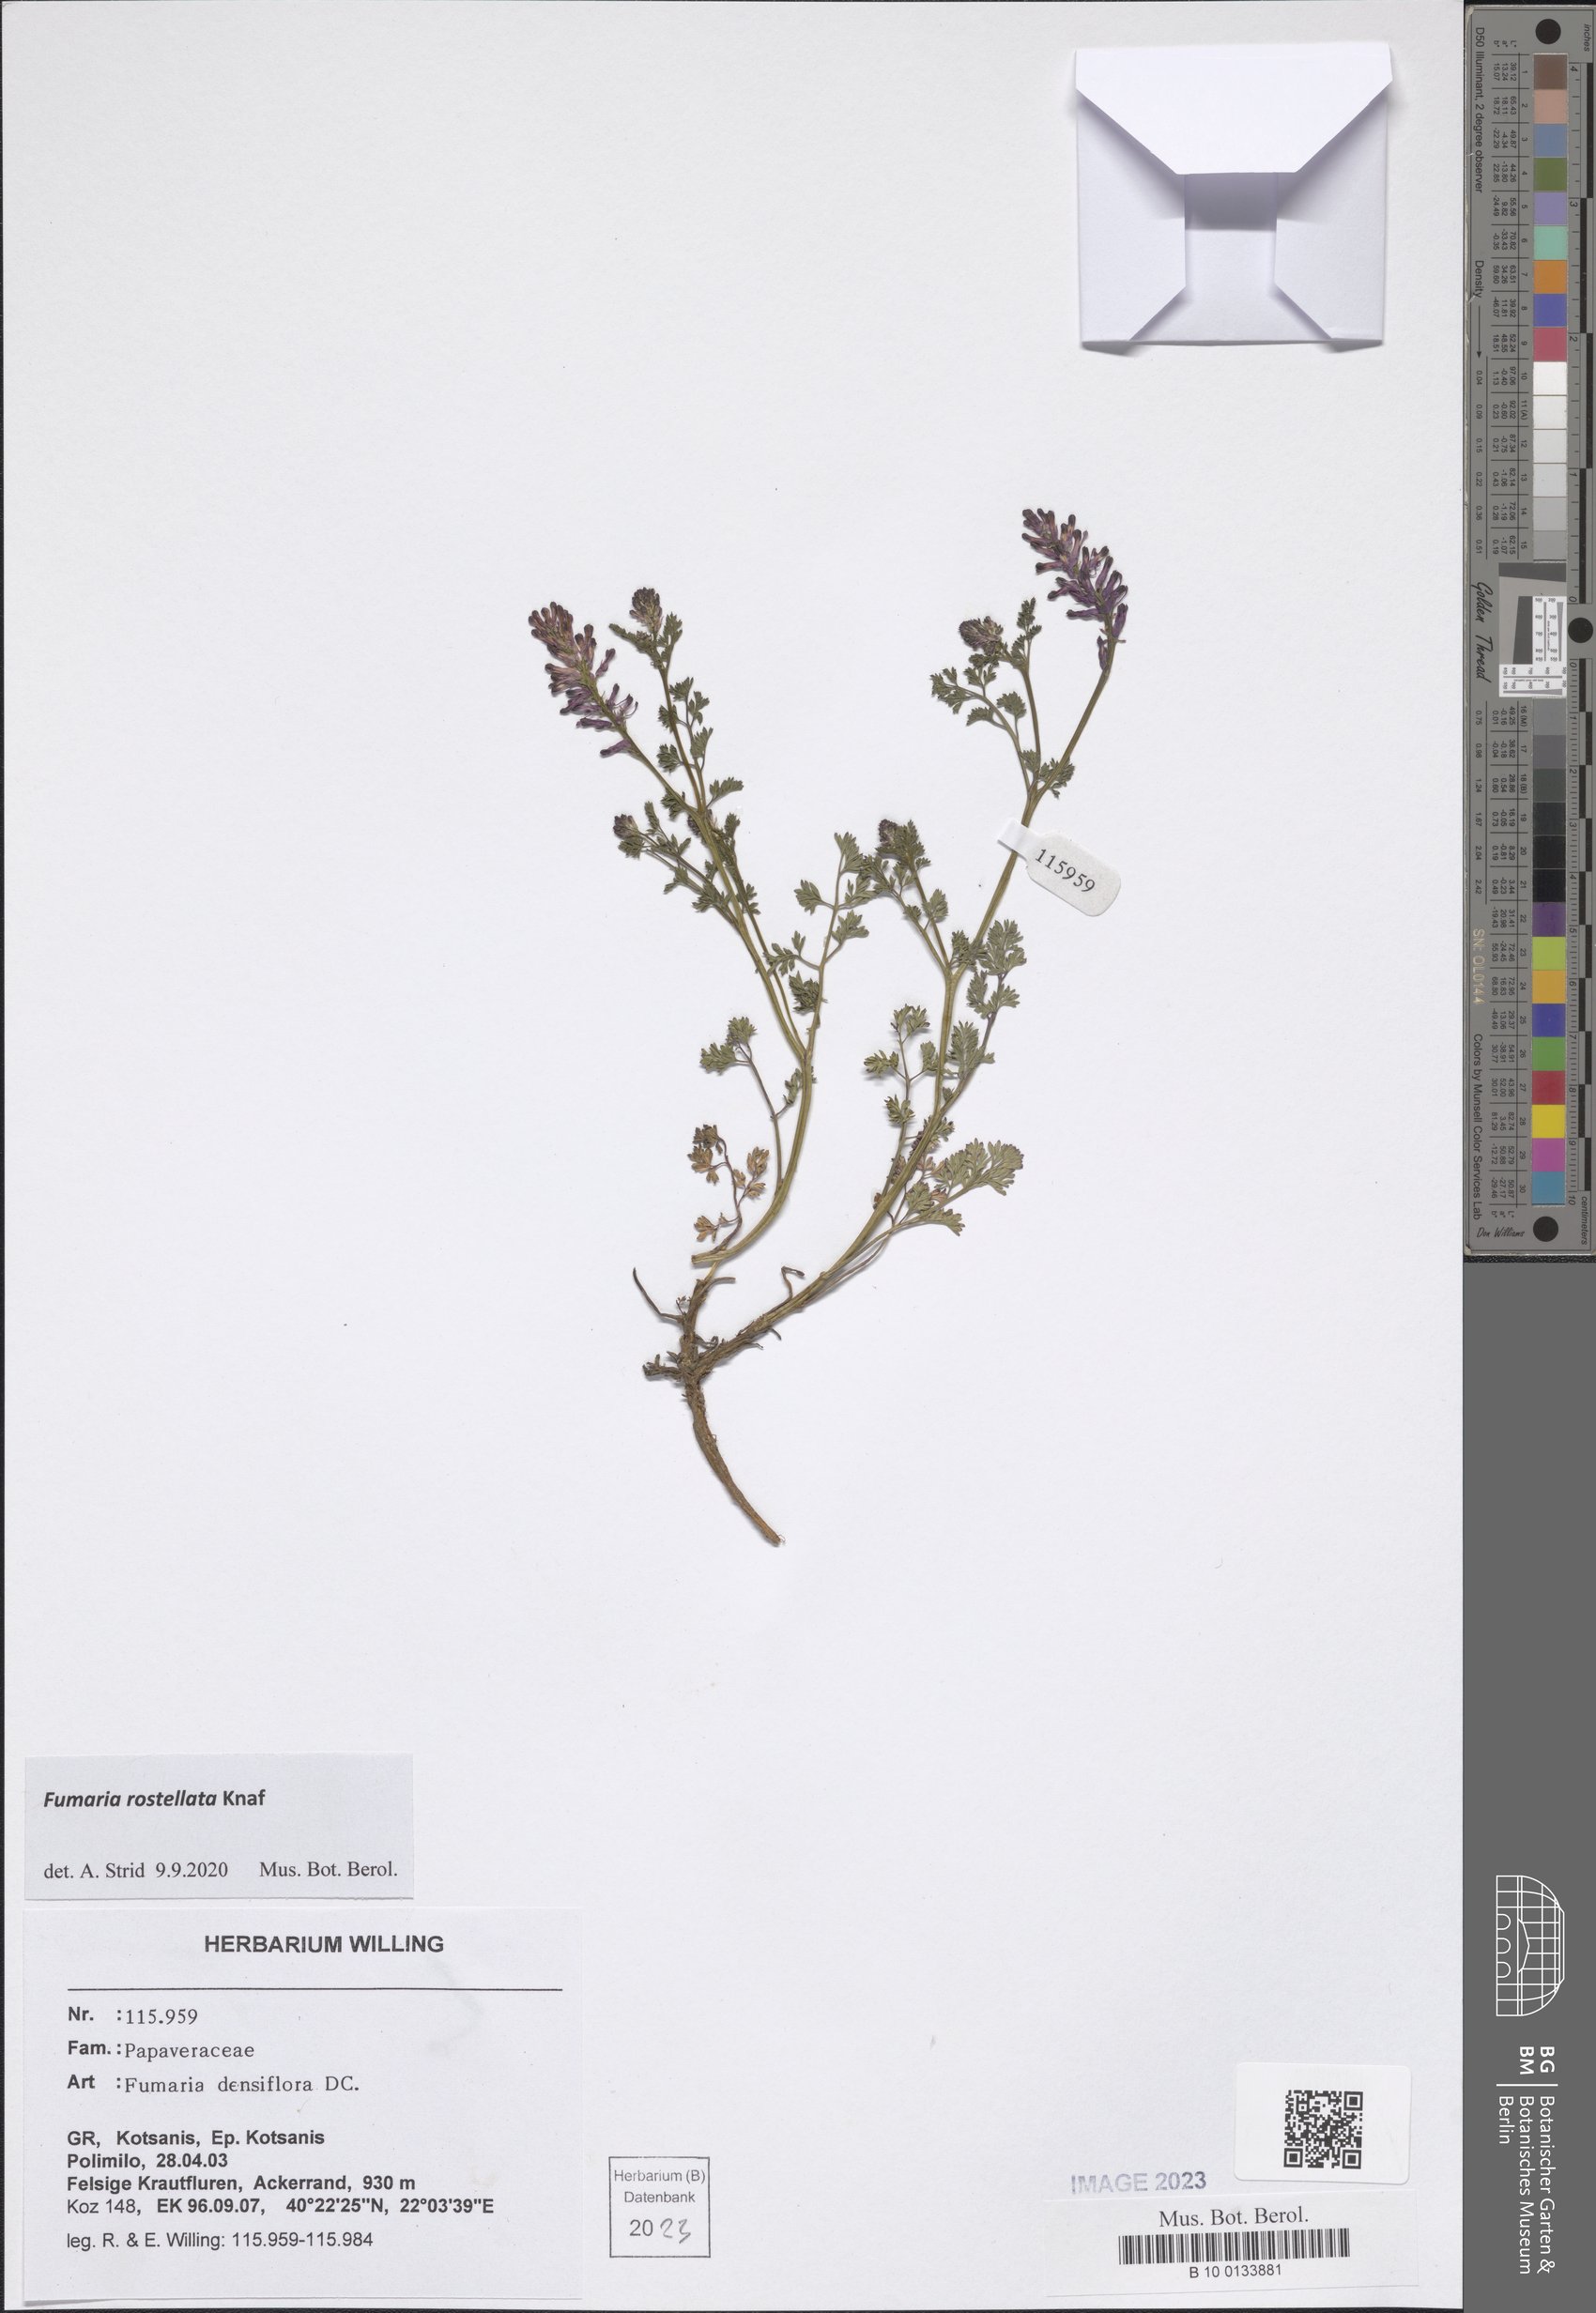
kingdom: Plantae
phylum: Tracheophyta
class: Magnoliopsida
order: Ranunculales
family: Papaveraceae
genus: Fumaria
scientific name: Fumaria rostellata
